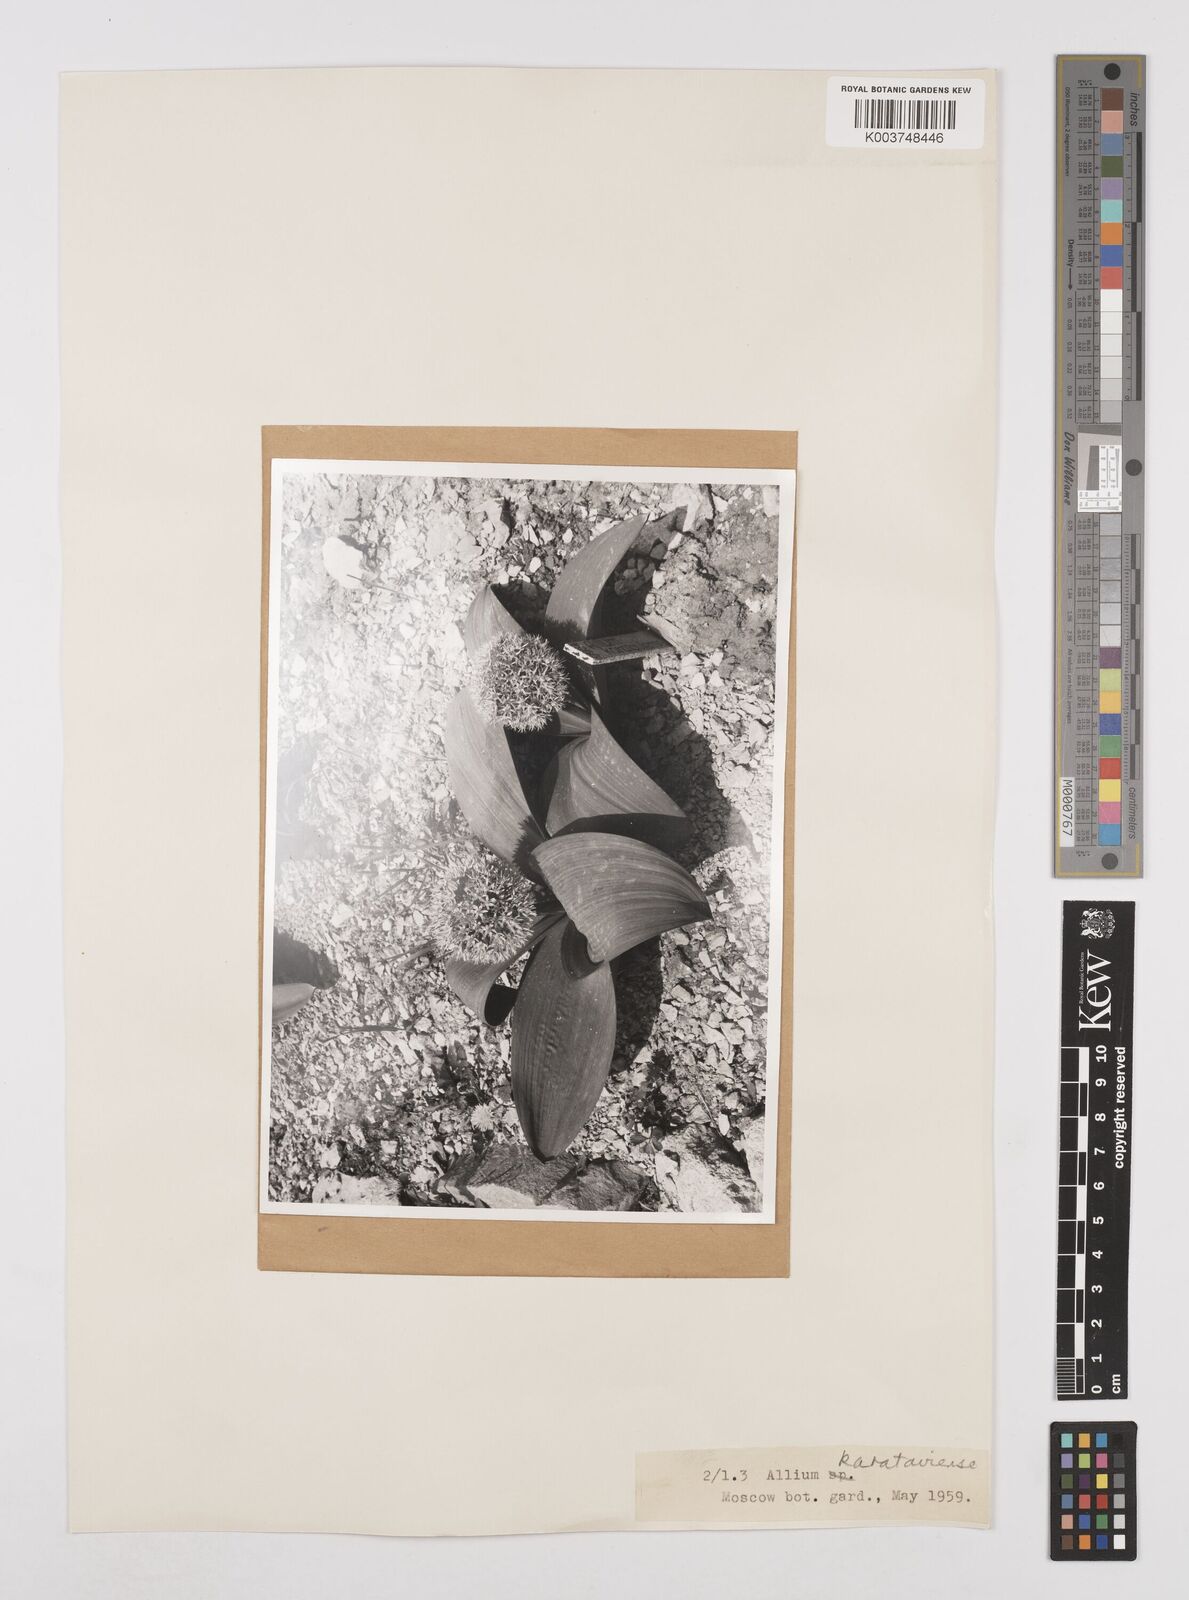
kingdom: Plantae
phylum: Tracheophyta
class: Liliopsida
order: Asparagales
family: Amaryllidaceae
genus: Allium
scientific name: Allium karataviense
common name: Turkestan onion
